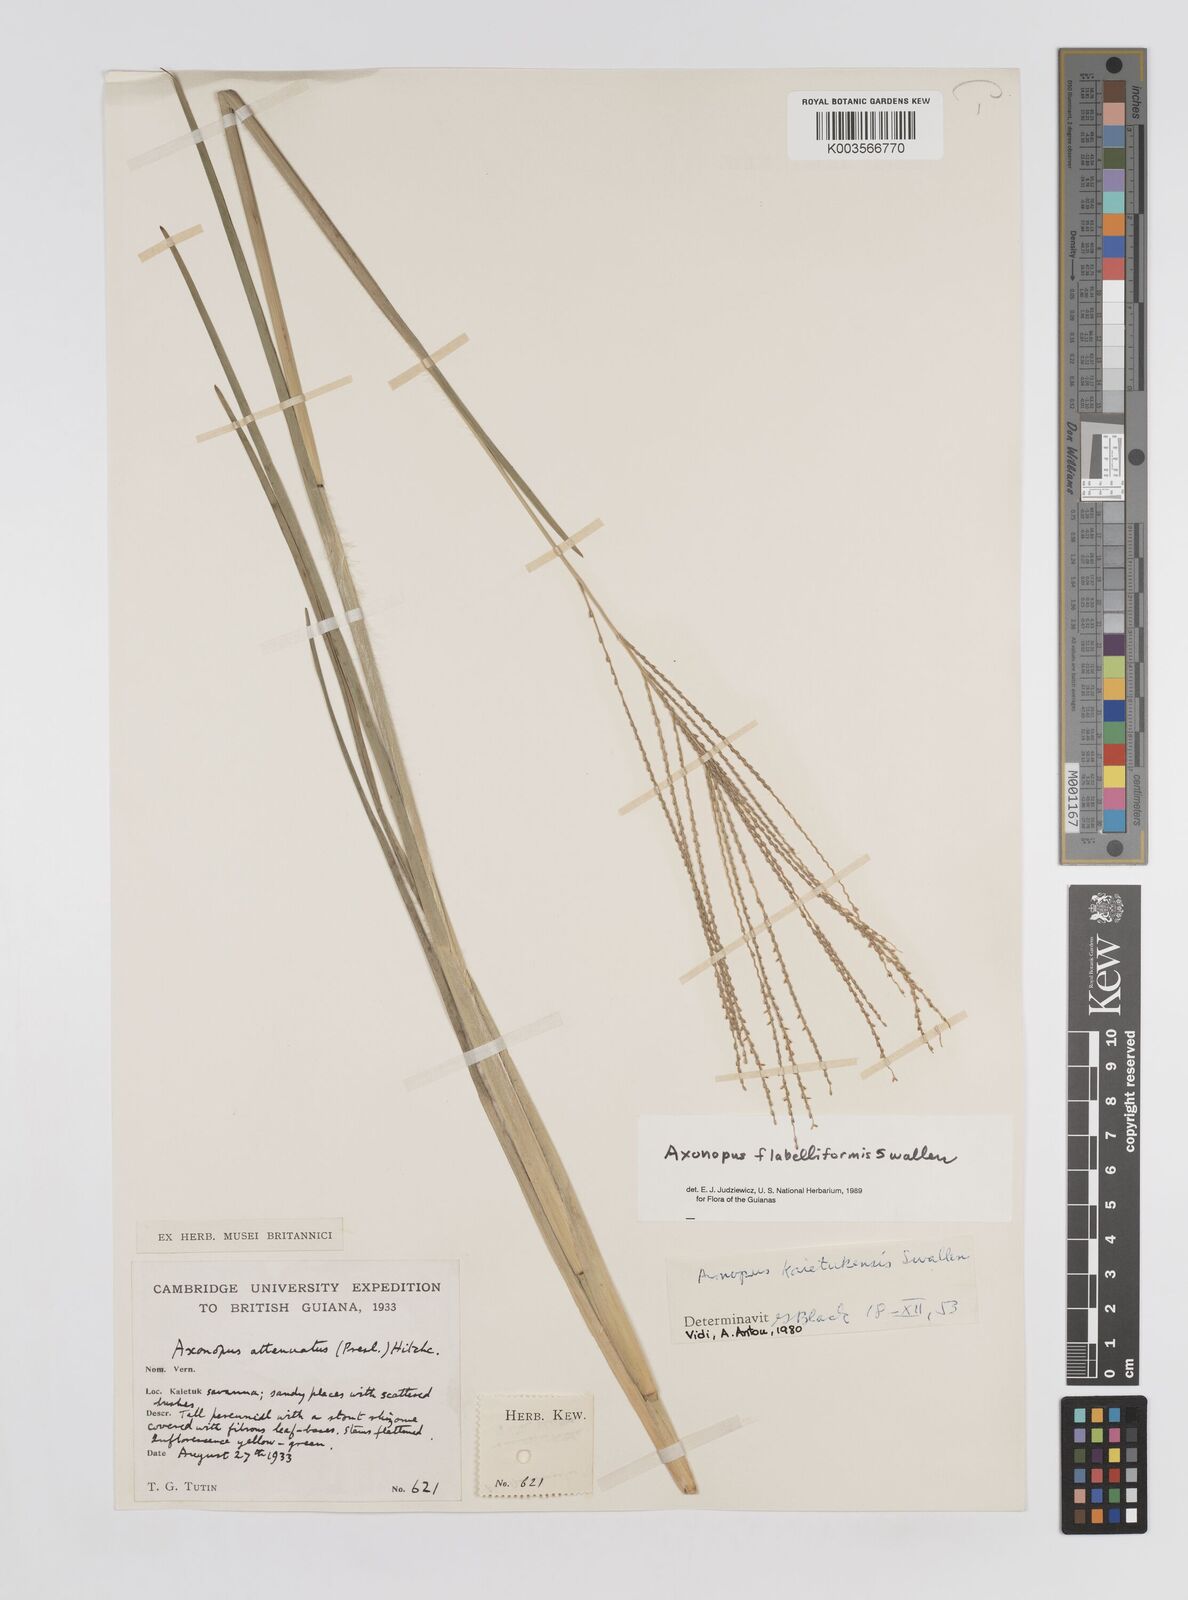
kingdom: Plantae
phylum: Tracheophyta
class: Liliopsida
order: Poales
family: Poaceae
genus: Axonopus
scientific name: Axonopus flabelliformis
